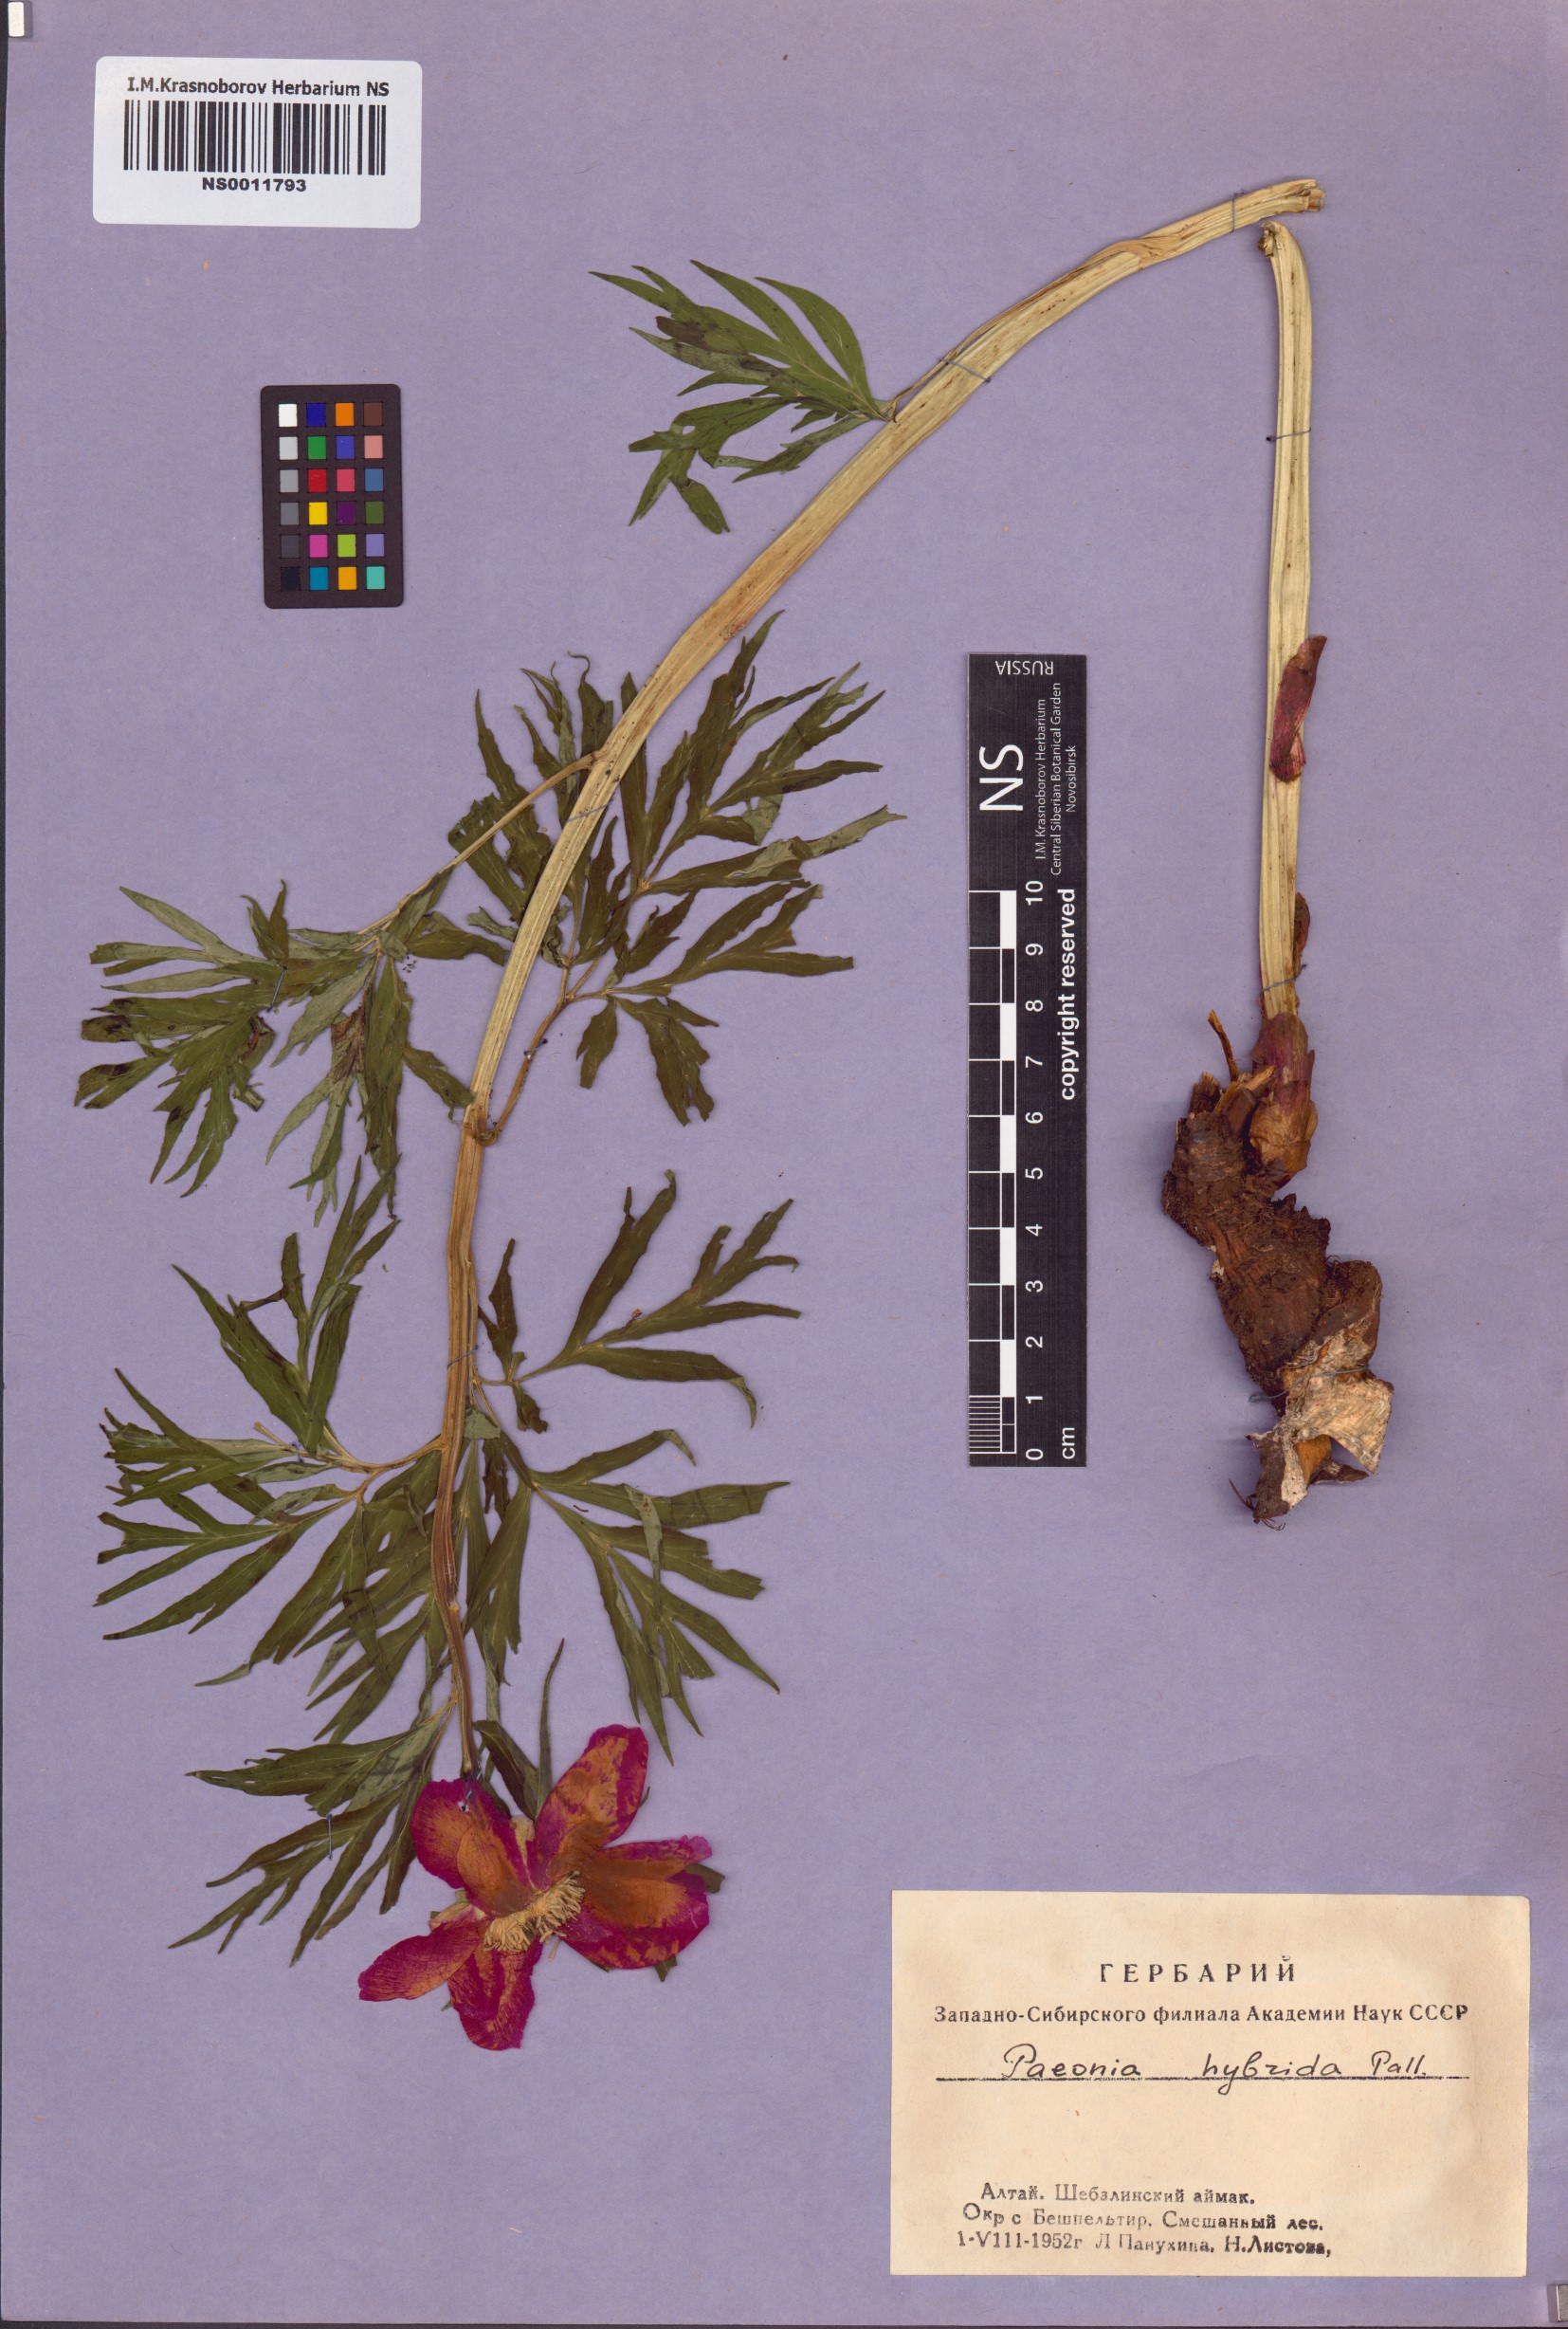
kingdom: Plantae
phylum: Tracheophyta
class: Magnoliopsida
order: Saxifragales
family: Paeoniaceae
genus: Paeonia
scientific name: Paeonia
